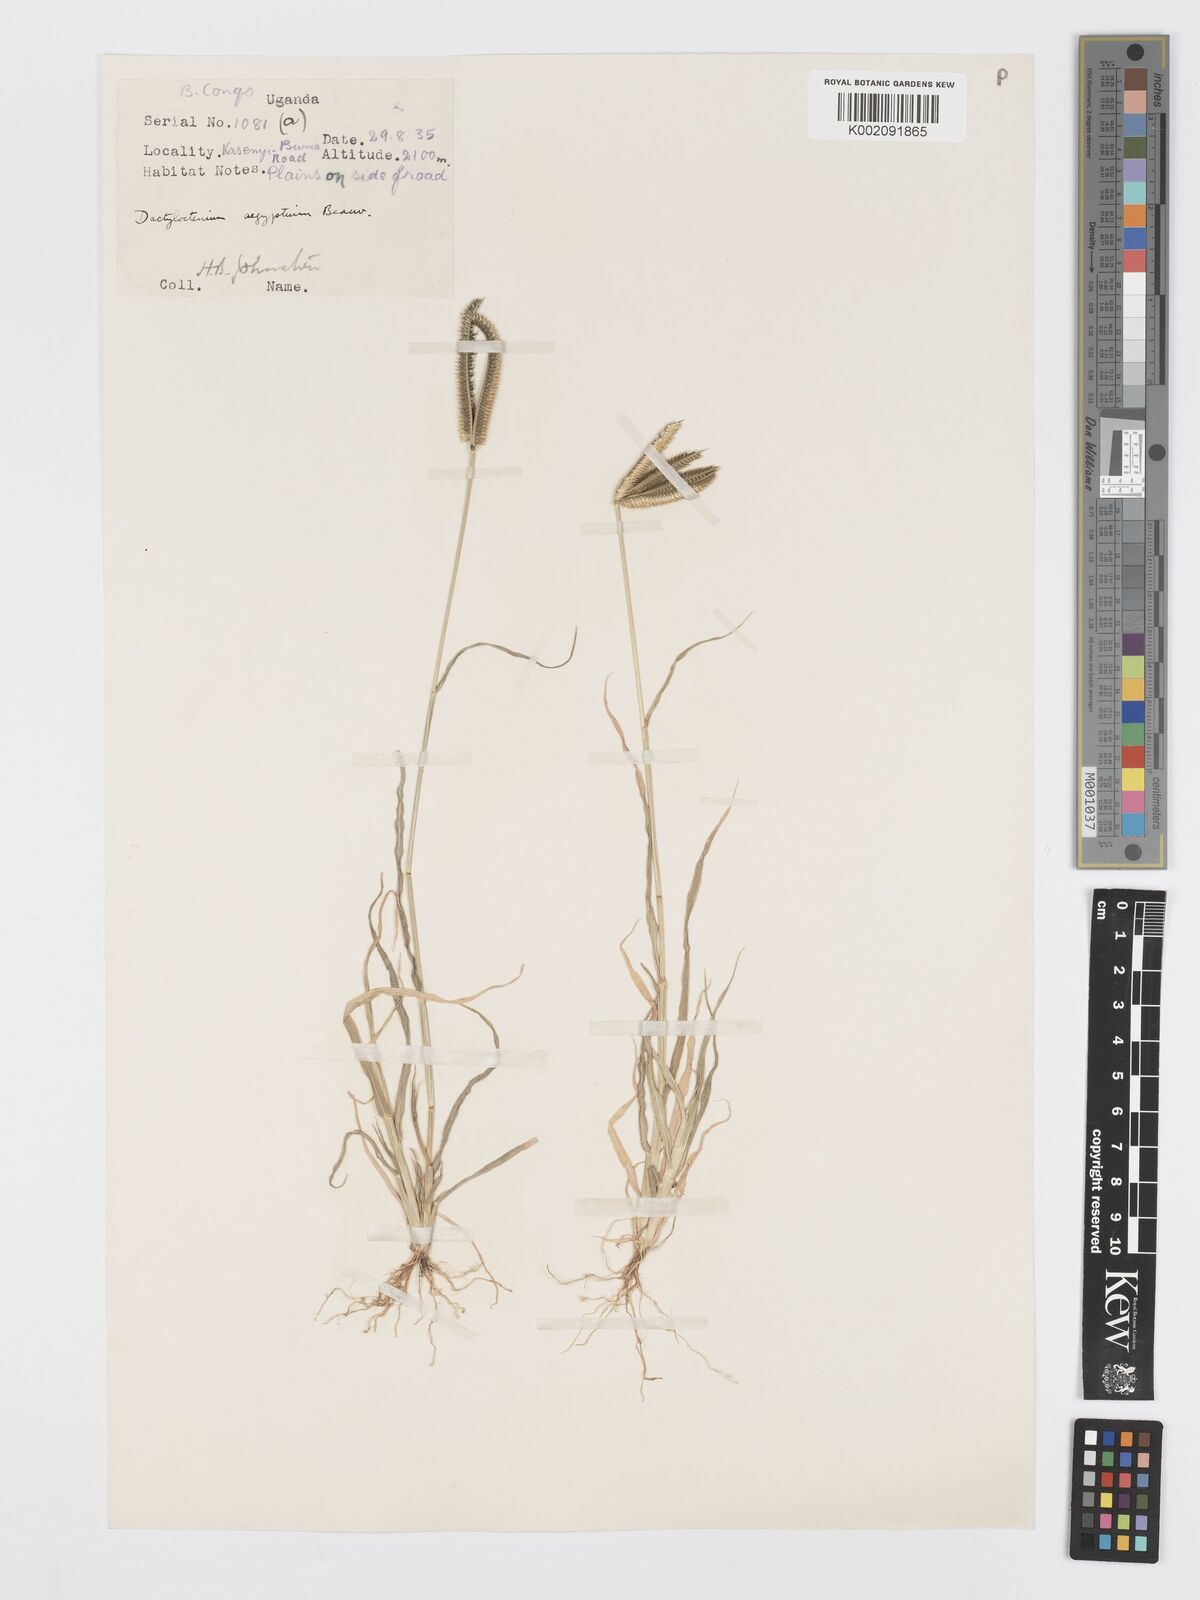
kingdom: Plantae
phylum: Tracheophyta
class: Liliopsida
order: Poales
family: Poaceae
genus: Dactyloctenium
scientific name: Dactyloctenium aegyptium
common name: Egyptian grass
